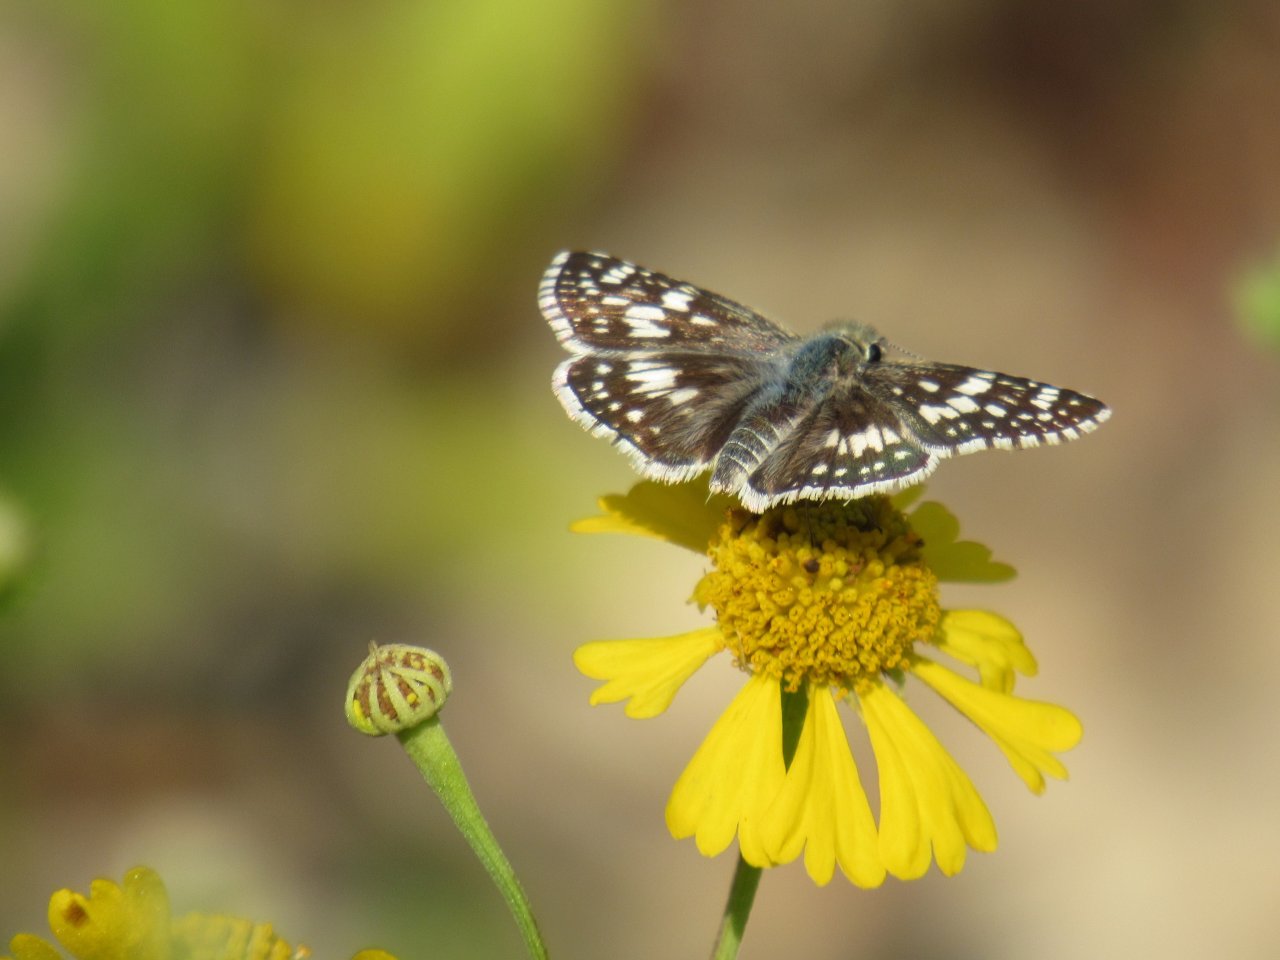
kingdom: Animalia
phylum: Arthropoda
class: Insecta
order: Lepidoptera
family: Hesperiidae
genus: Pyrgus
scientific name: Pyrgus communis
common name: Common Checkered-Skipper
